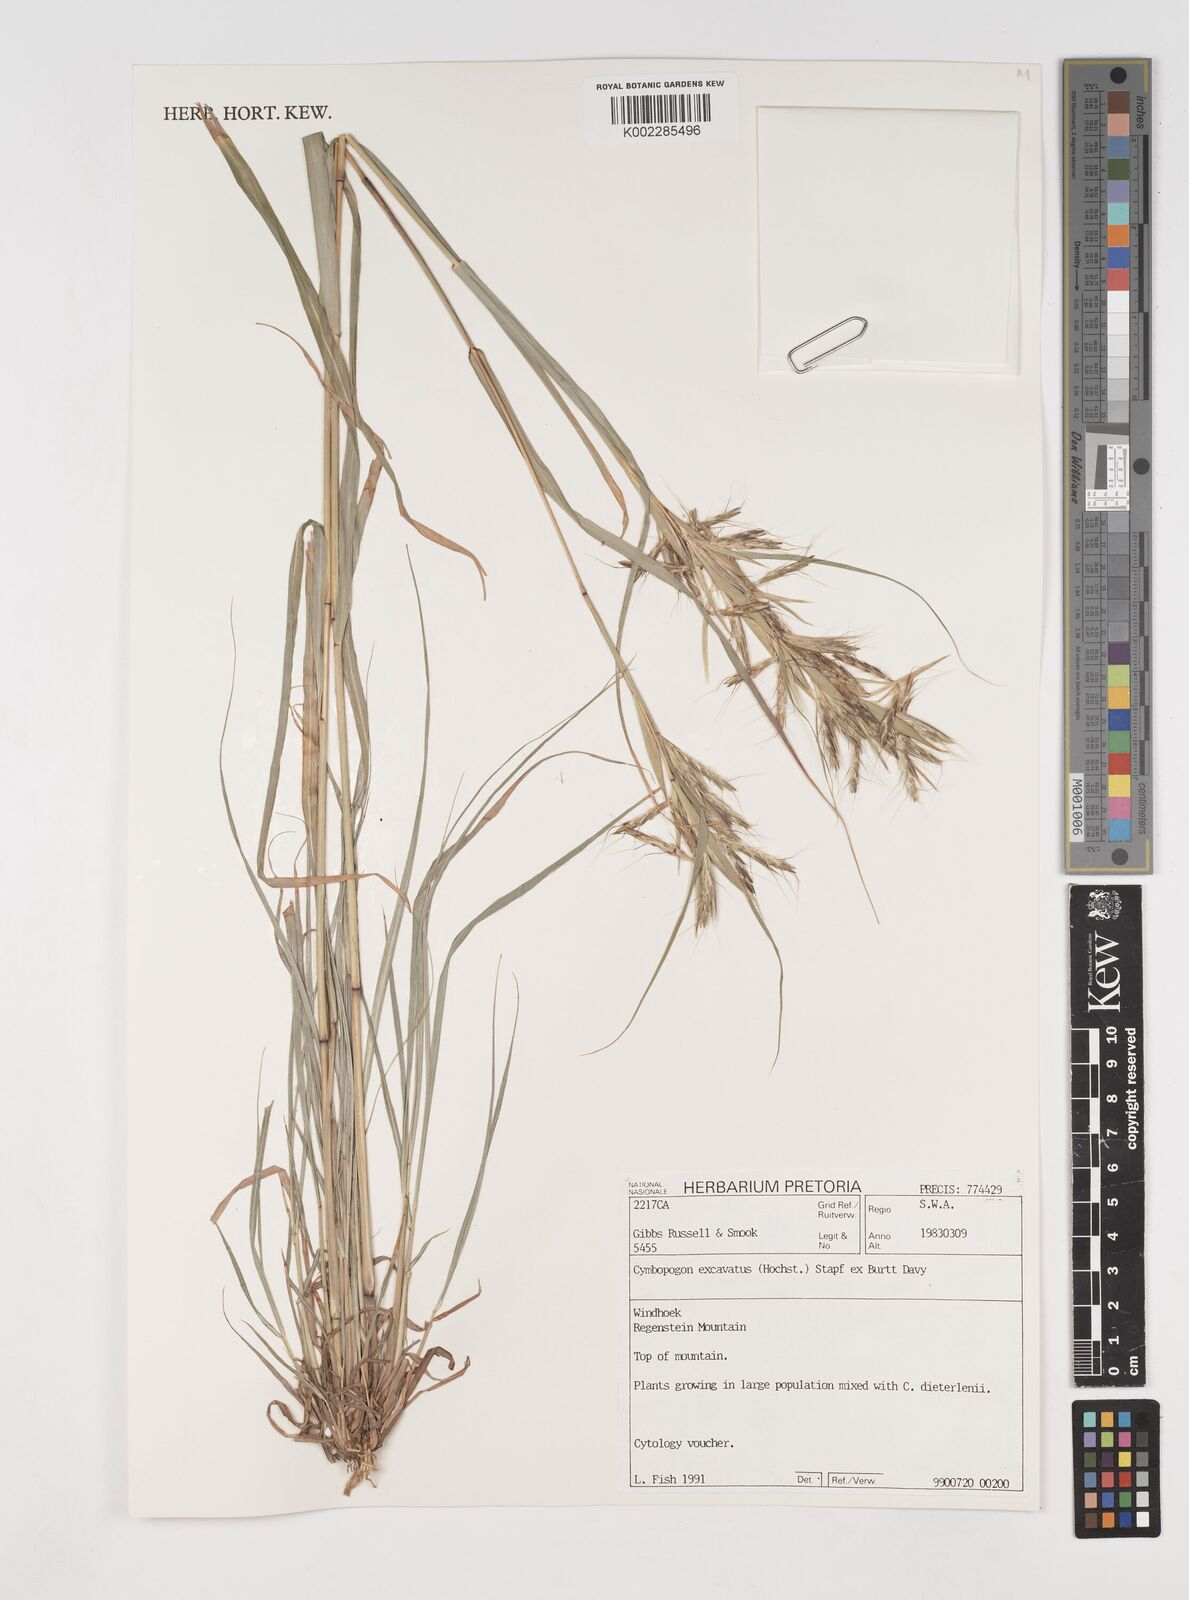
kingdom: Plantae
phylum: Tracheophyta
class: Liliopsida
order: Poales
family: Poaceae
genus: Cymbopogon
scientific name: Cymbopogon caesius
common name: Kachi grass
